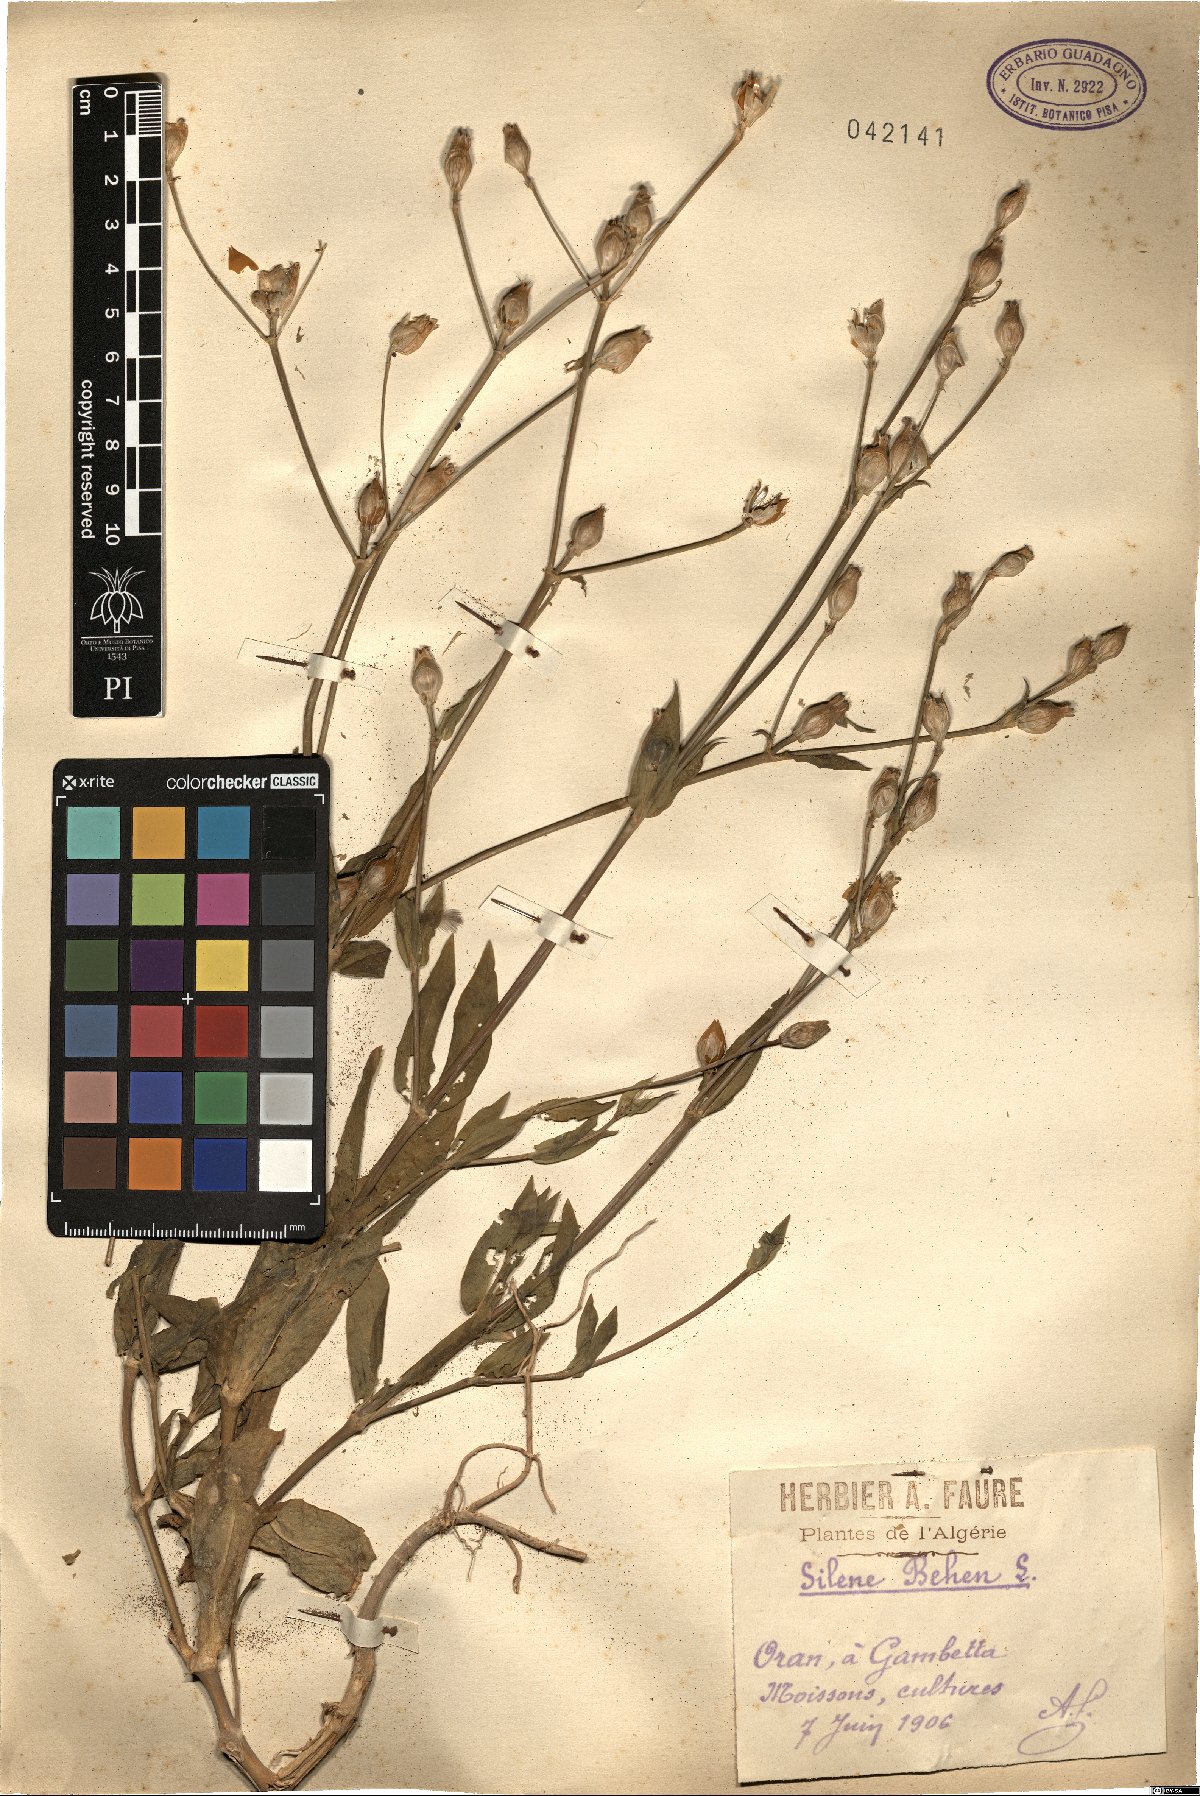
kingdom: Plantae
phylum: Tracheophyta
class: Magnoliopsida
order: Caryophyllales
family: Caryophyllaceae
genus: Silene
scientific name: Silene behen
